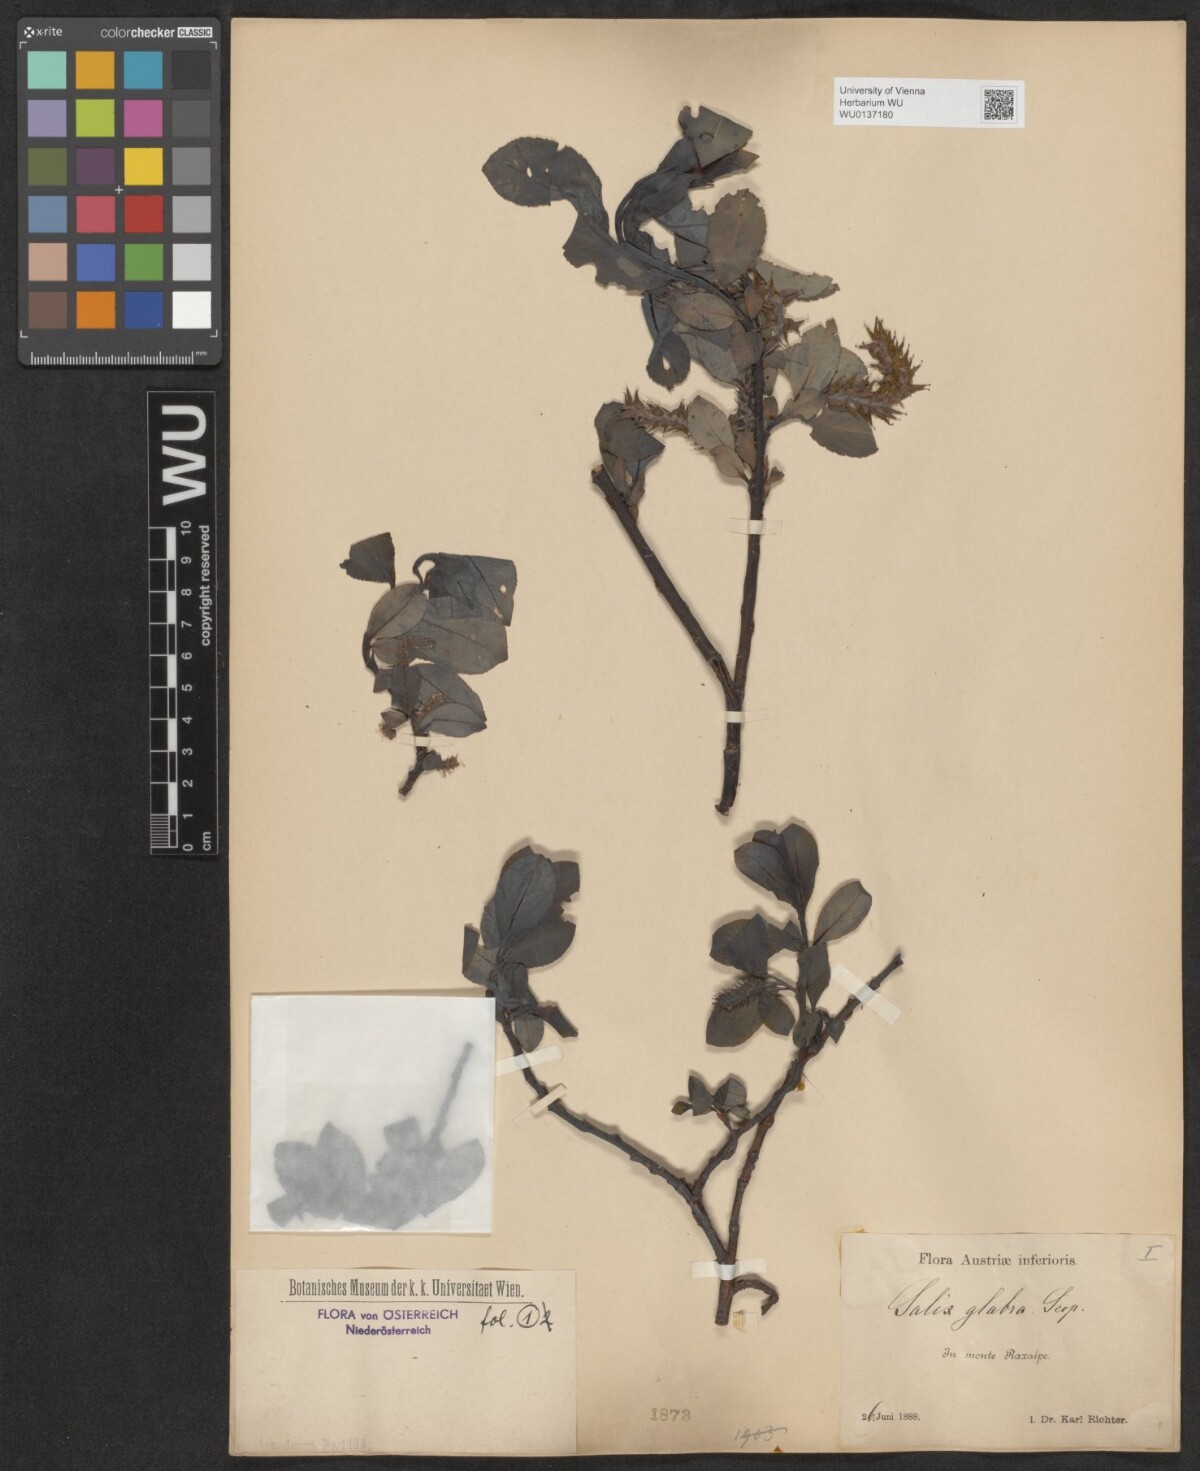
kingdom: Plantae
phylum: Tracheophyta
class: Magnoliopsida
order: Malpighiales
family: Salicaceae
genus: Salix
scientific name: Salix glabra
